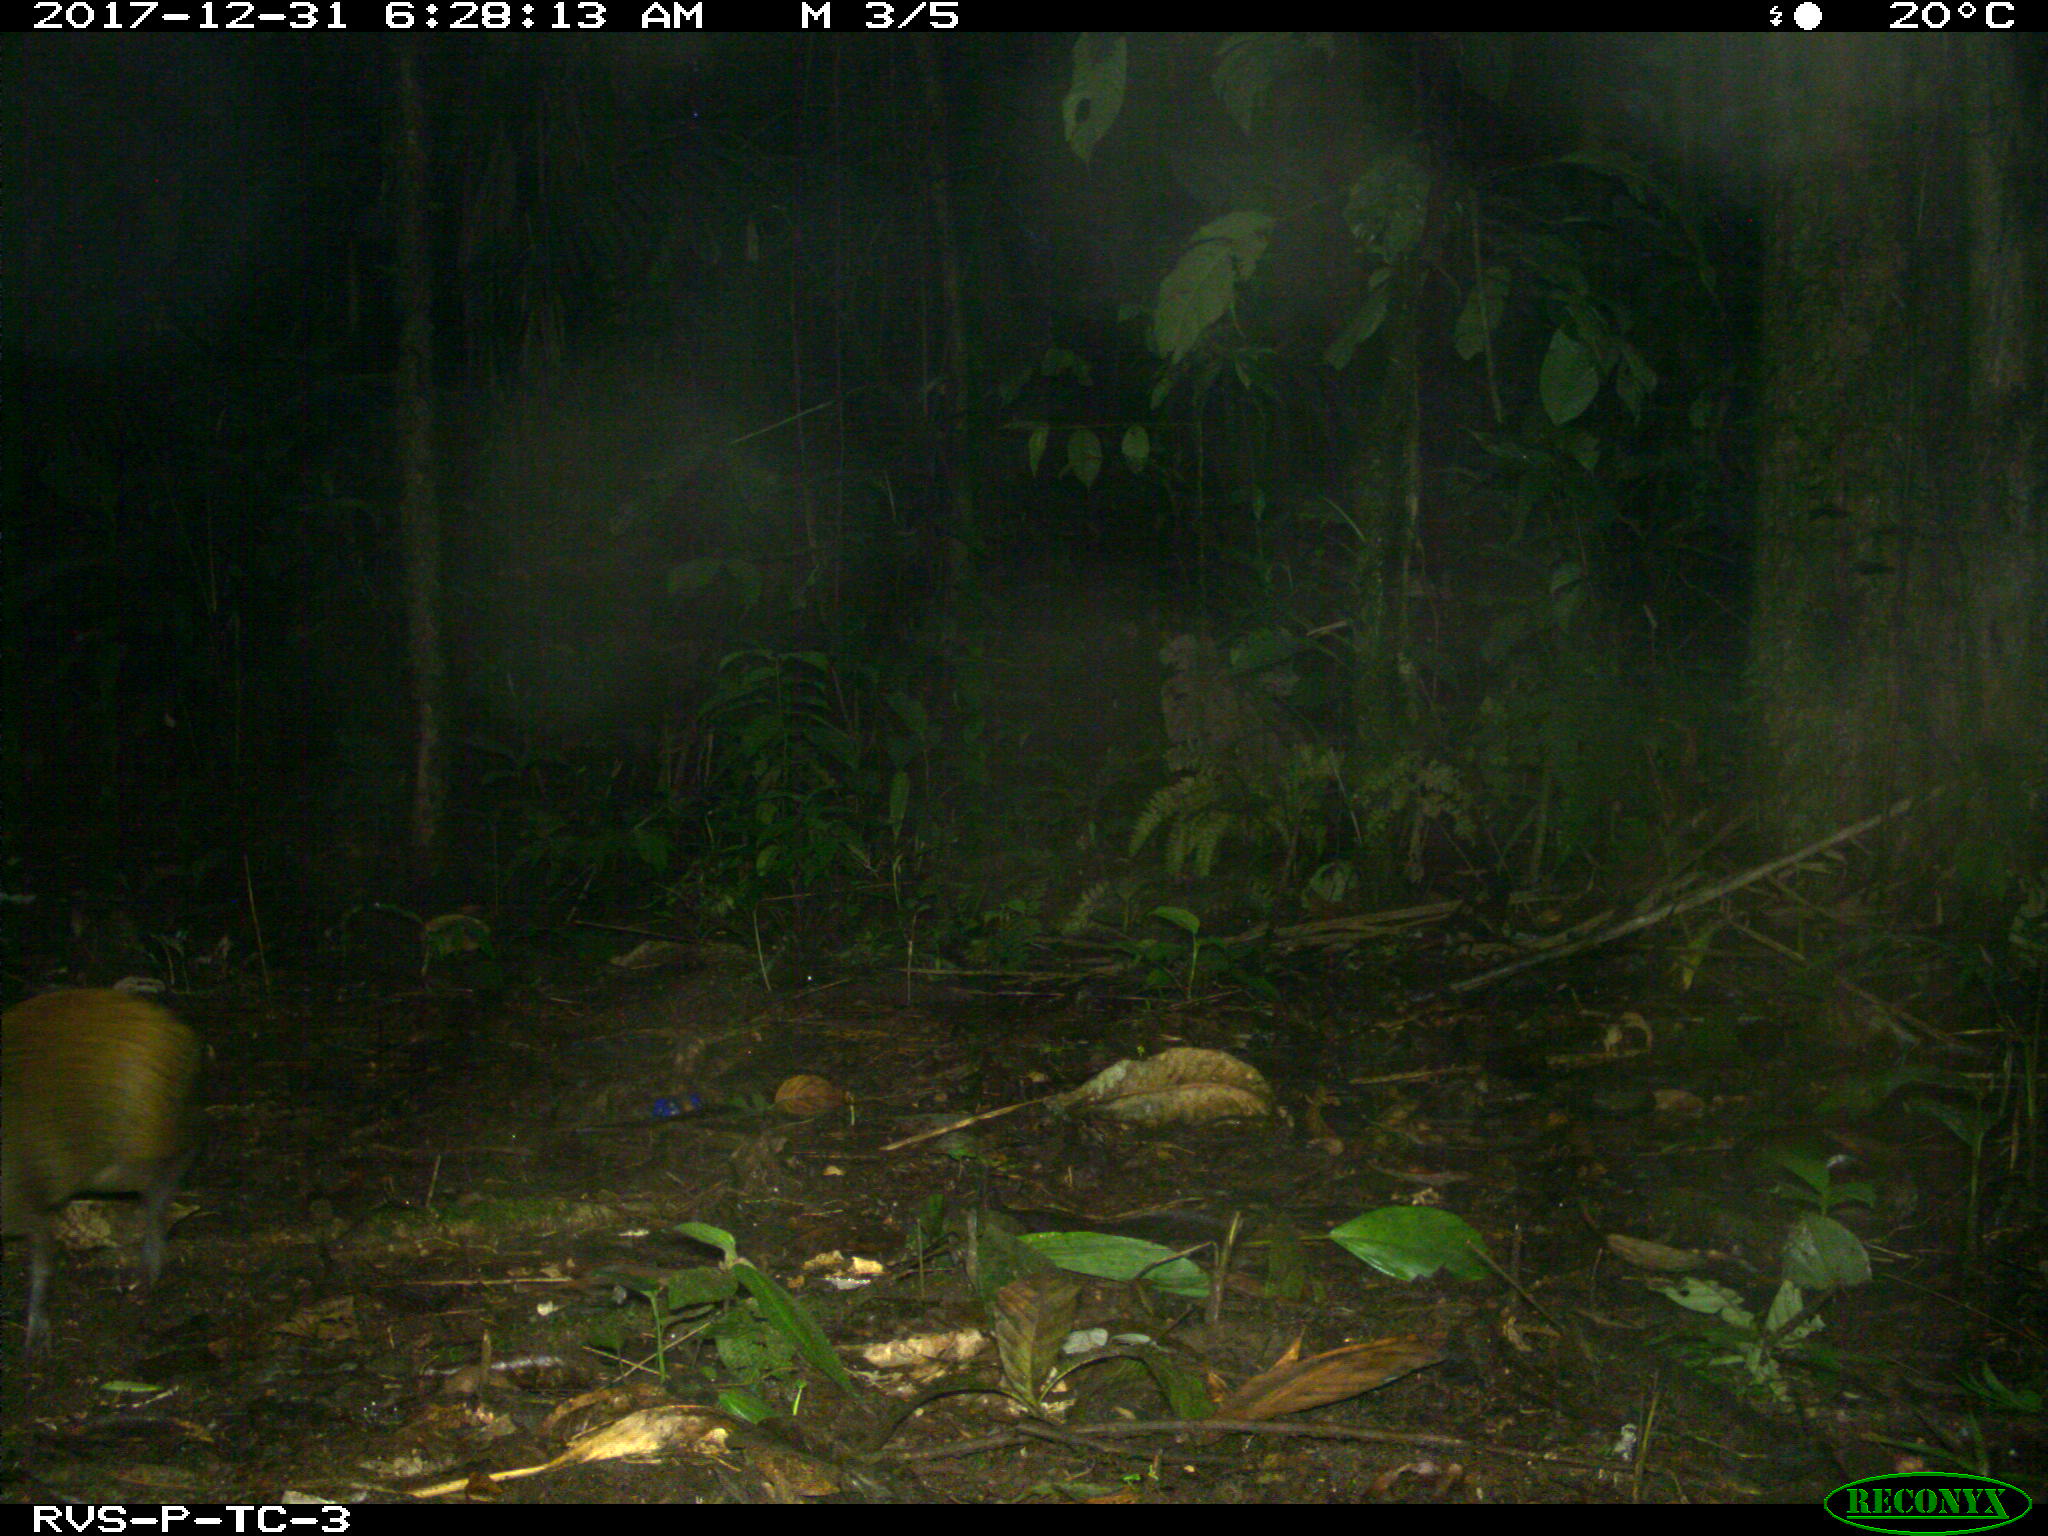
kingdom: Animalia
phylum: Chordata
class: Mammalia
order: Rodentia
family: Dasyproctidae
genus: Dasyprocta
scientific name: Dasyprocta punctata
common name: Central american agouti
